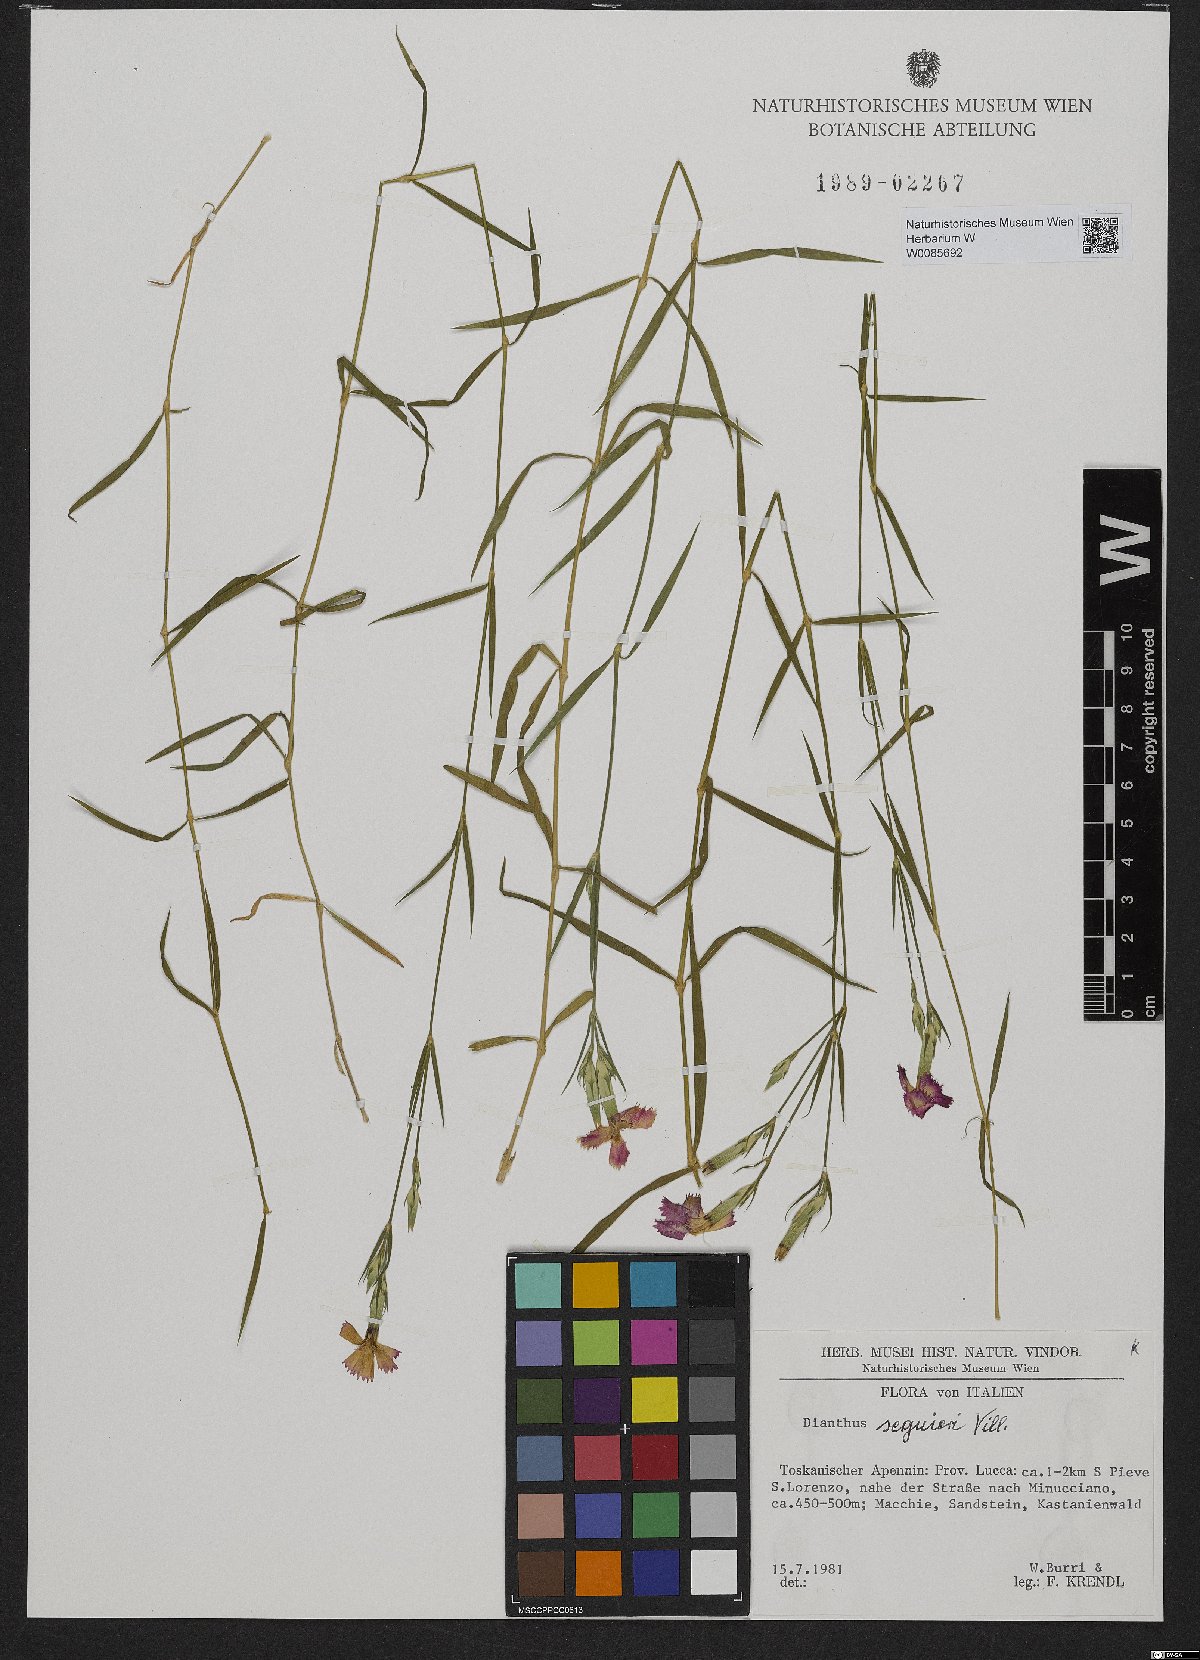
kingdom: Plantae
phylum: Tracheophyta
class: Magnoliopsida
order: Caryophyllales
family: Caryophyllaceae
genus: Dianthus
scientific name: Dianthus seguieri
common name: Ragged pink
